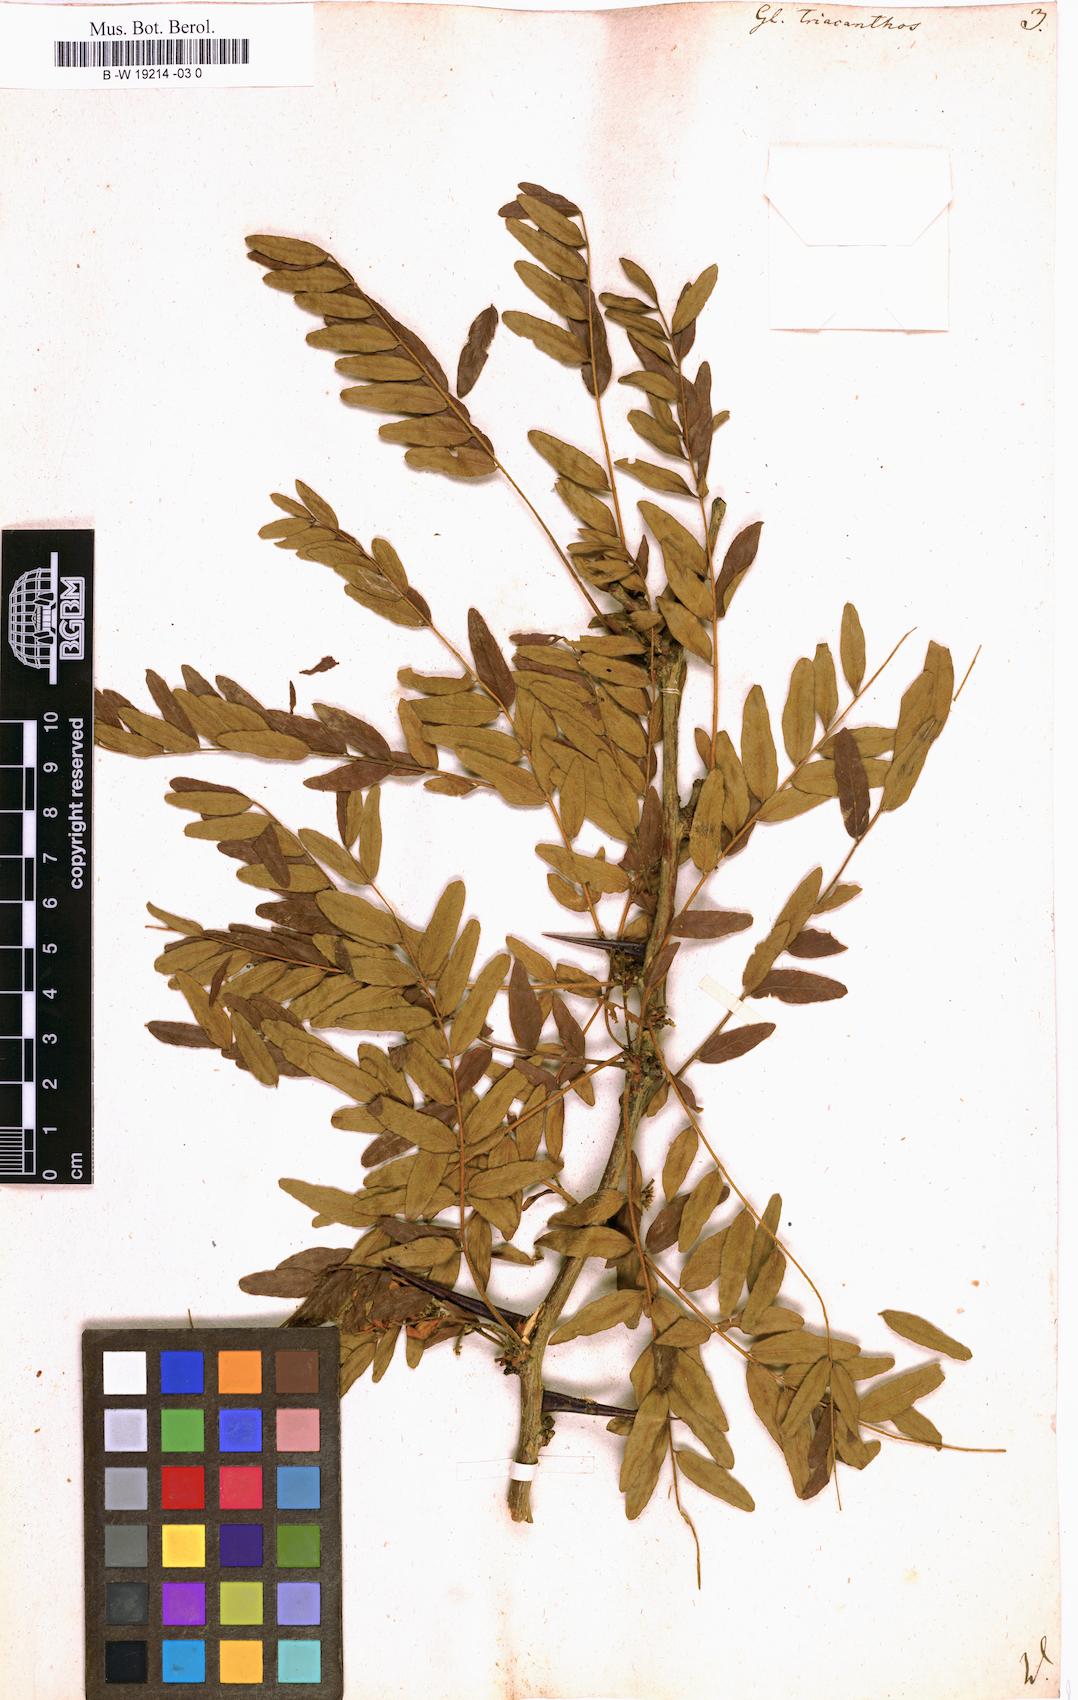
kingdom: Plantae
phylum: Tracheophyta
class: Magnoliopsida
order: Fabales
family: Fabaceae
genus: Gleditsia
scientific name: Gleditsia triacanthos
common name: Common honeylocust
